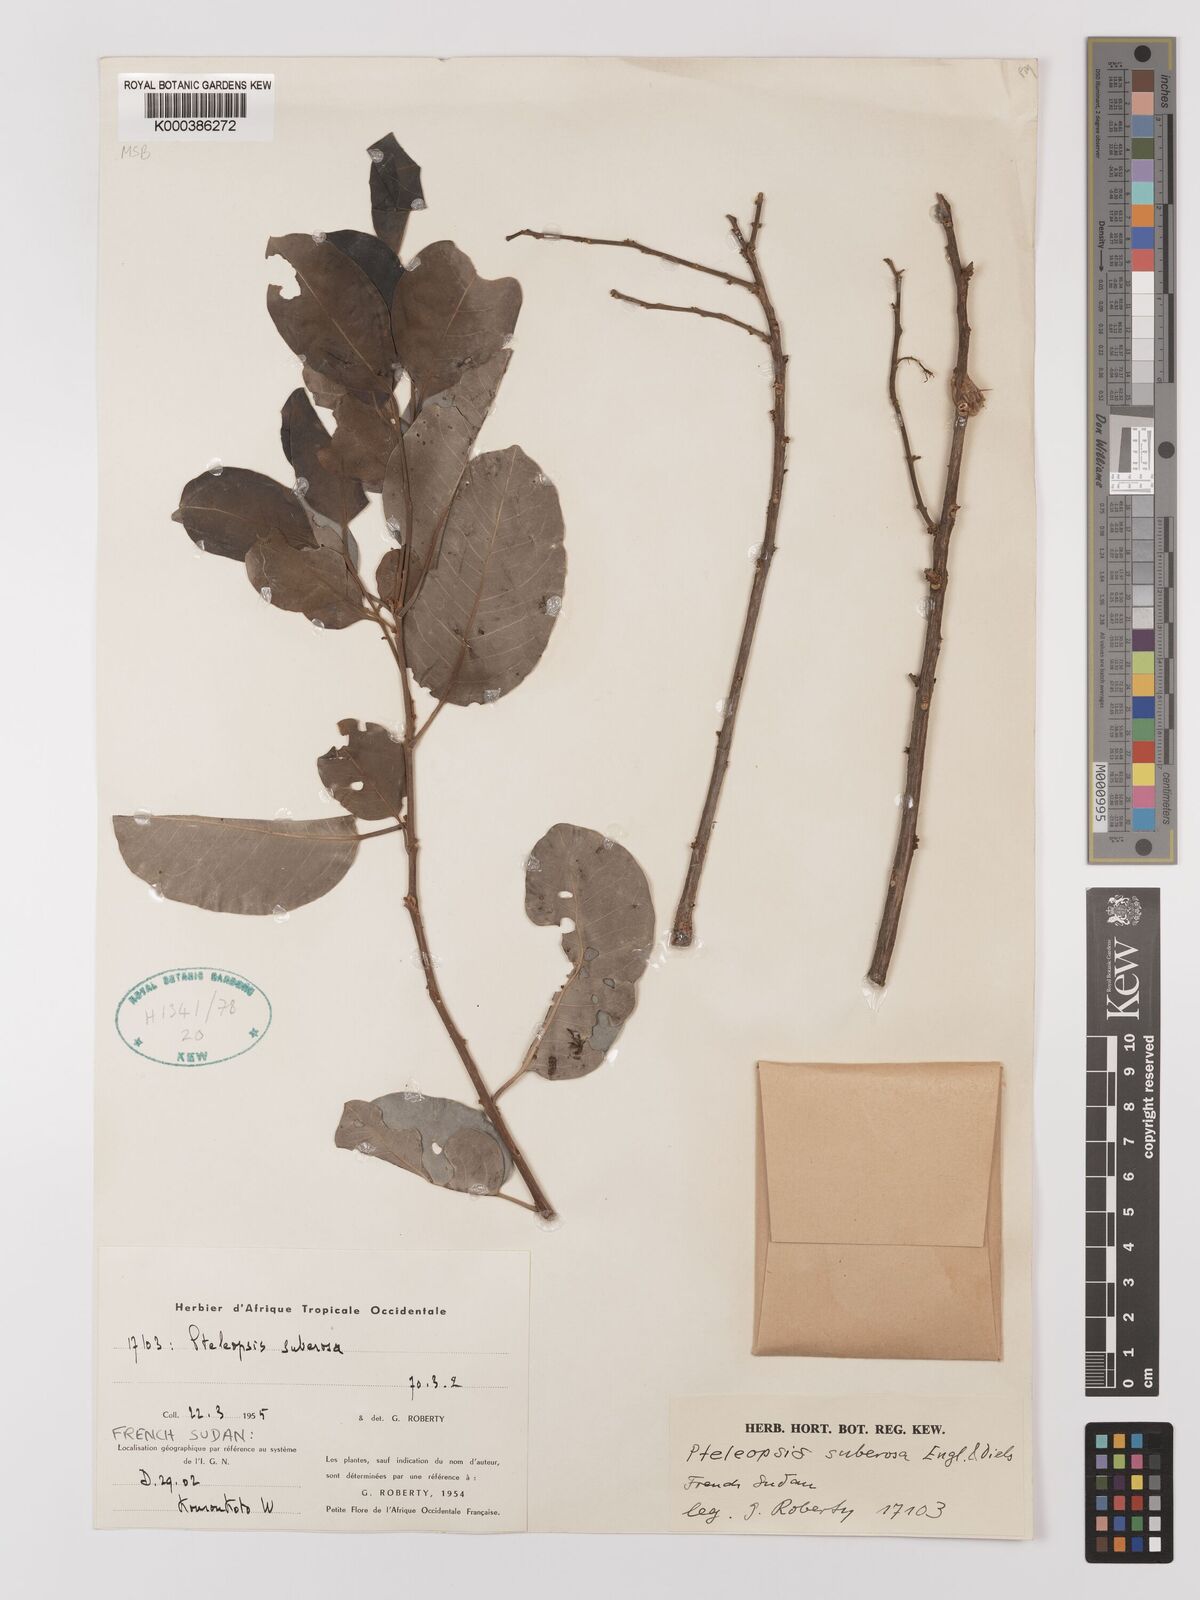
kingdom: Plantae
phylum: Tracheophyta
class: Magnoliopsida
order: Myrtales
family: Combretaceae
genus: Terminalia
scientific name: Terminalia engleri
